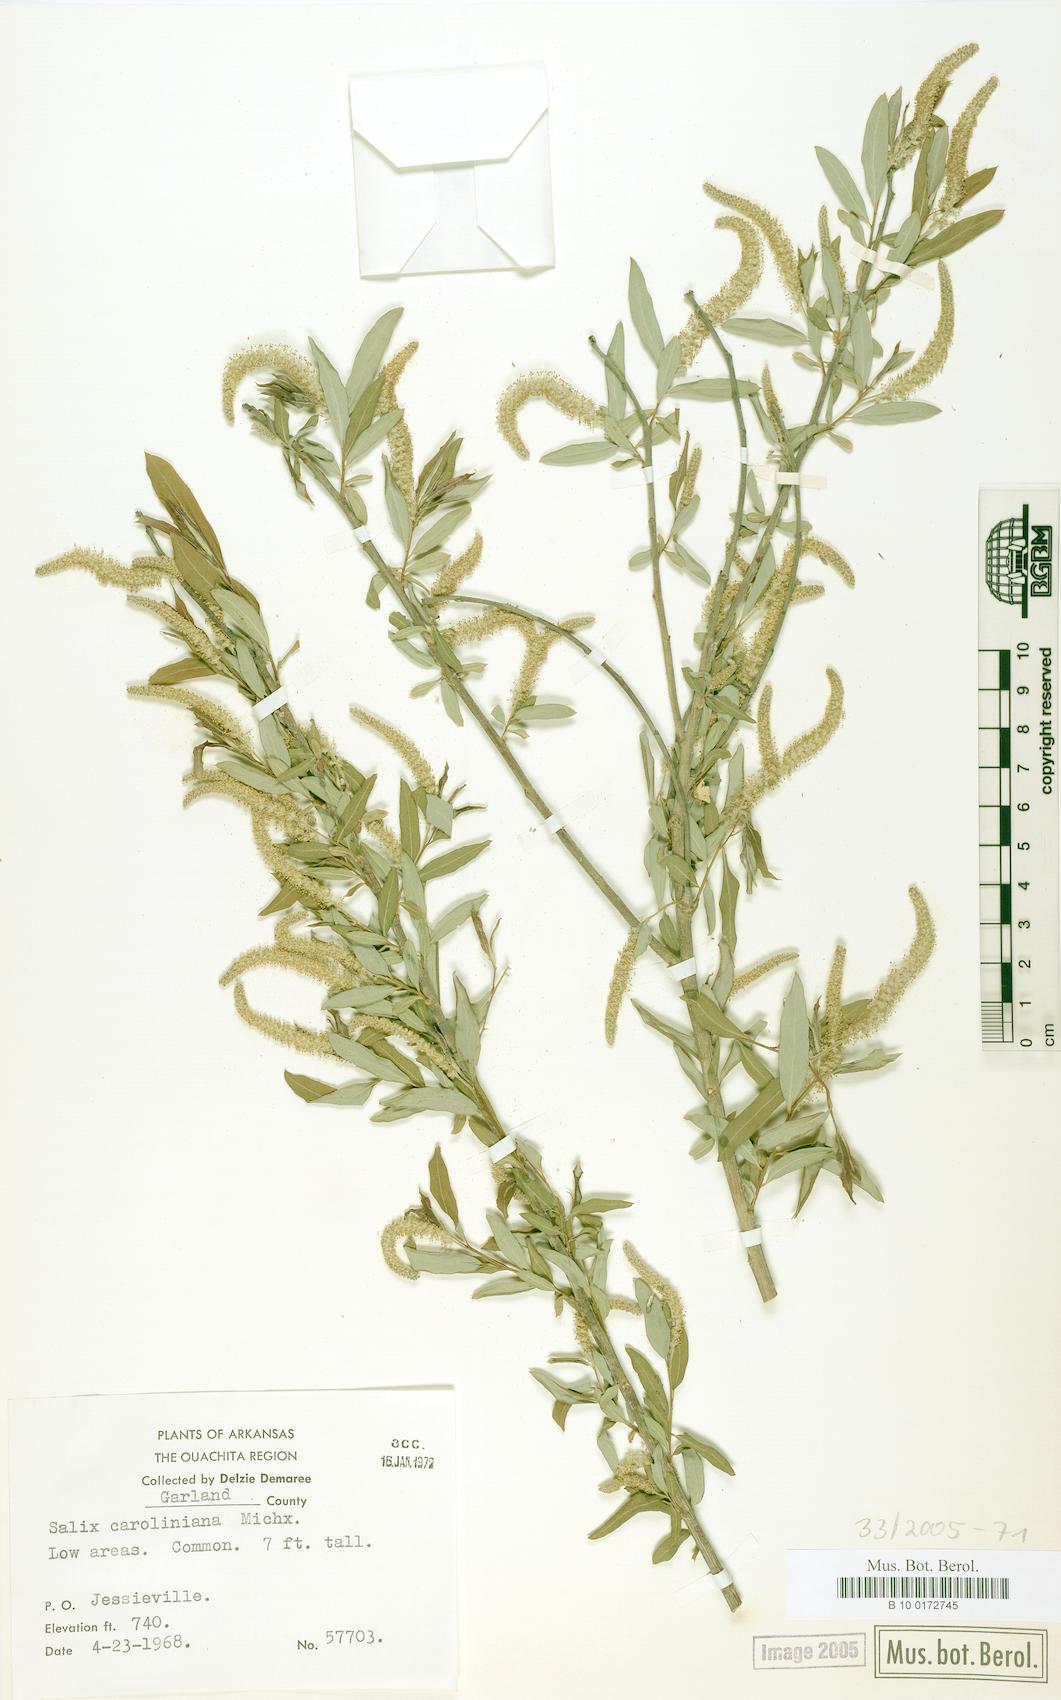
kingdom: Plantae
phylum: Tracheophyta
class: Magnoliopsida
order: Malpighiales
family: Salicaceae
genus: Salix
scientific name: Salix caroliniana
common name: Carolina willow
